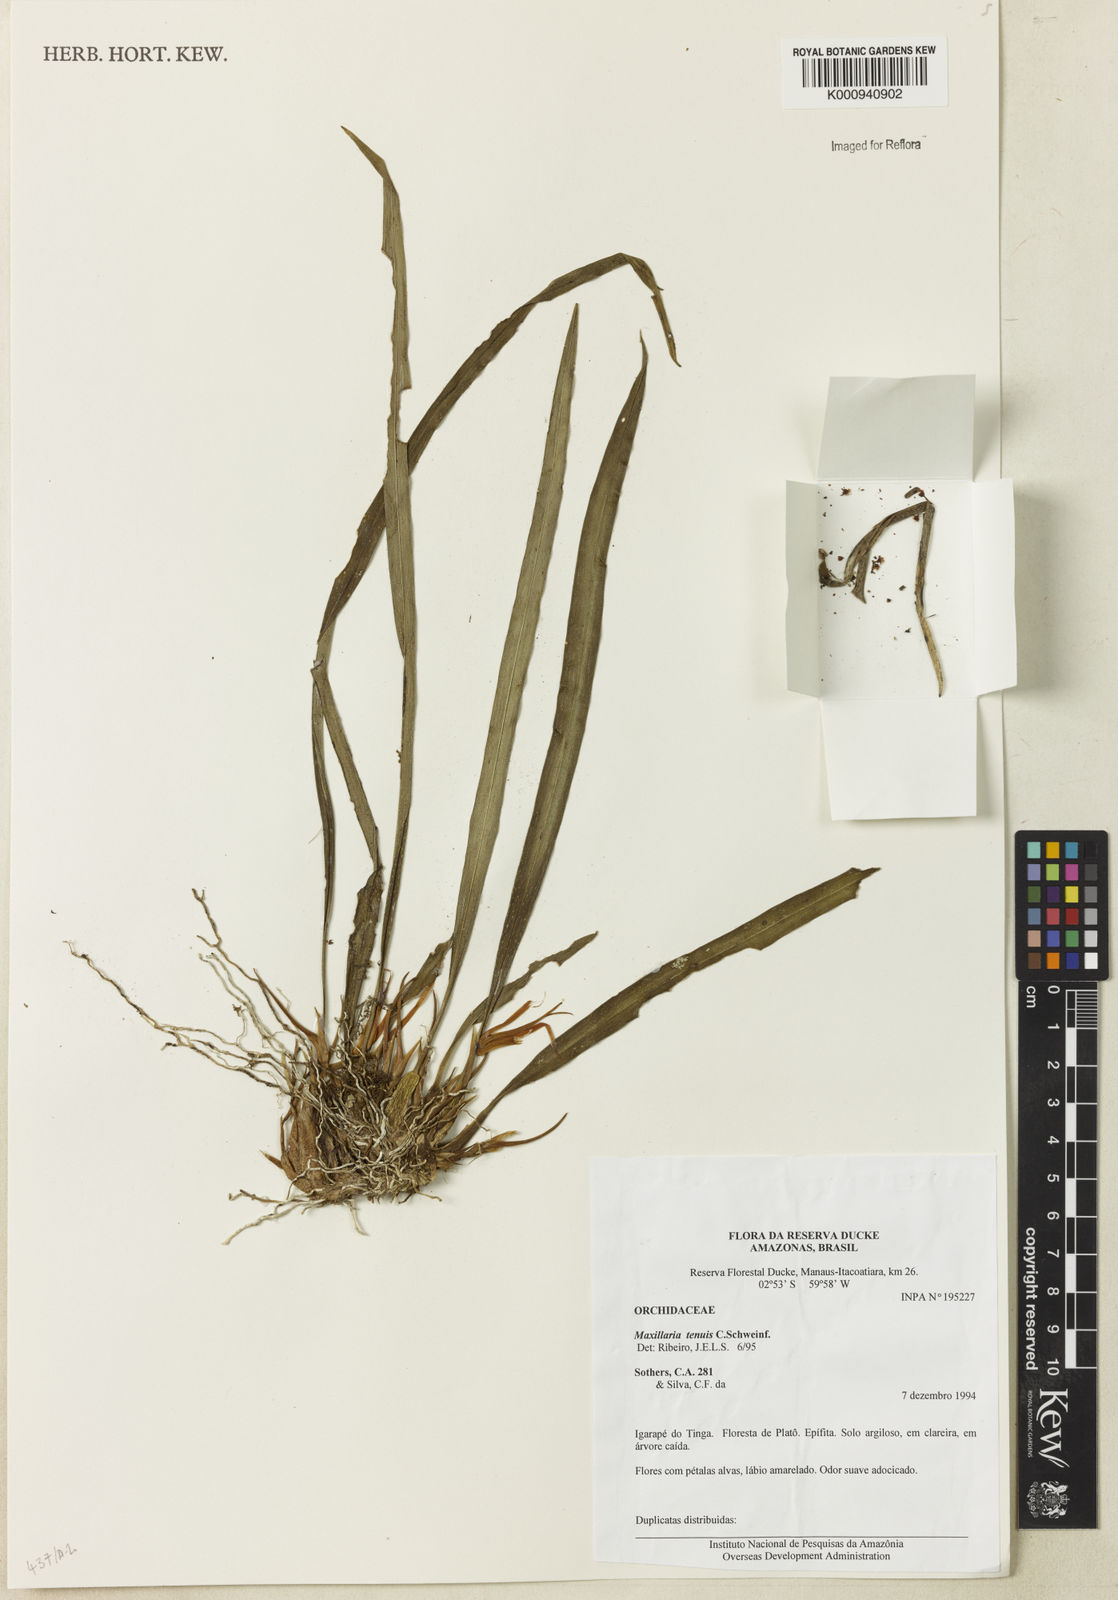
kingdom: Plantae
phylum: Tracheophyta
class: Liliopsida
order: Asparagales
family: Orchidaceae
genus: Maxillaria
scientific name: Maxillaria tenuis
